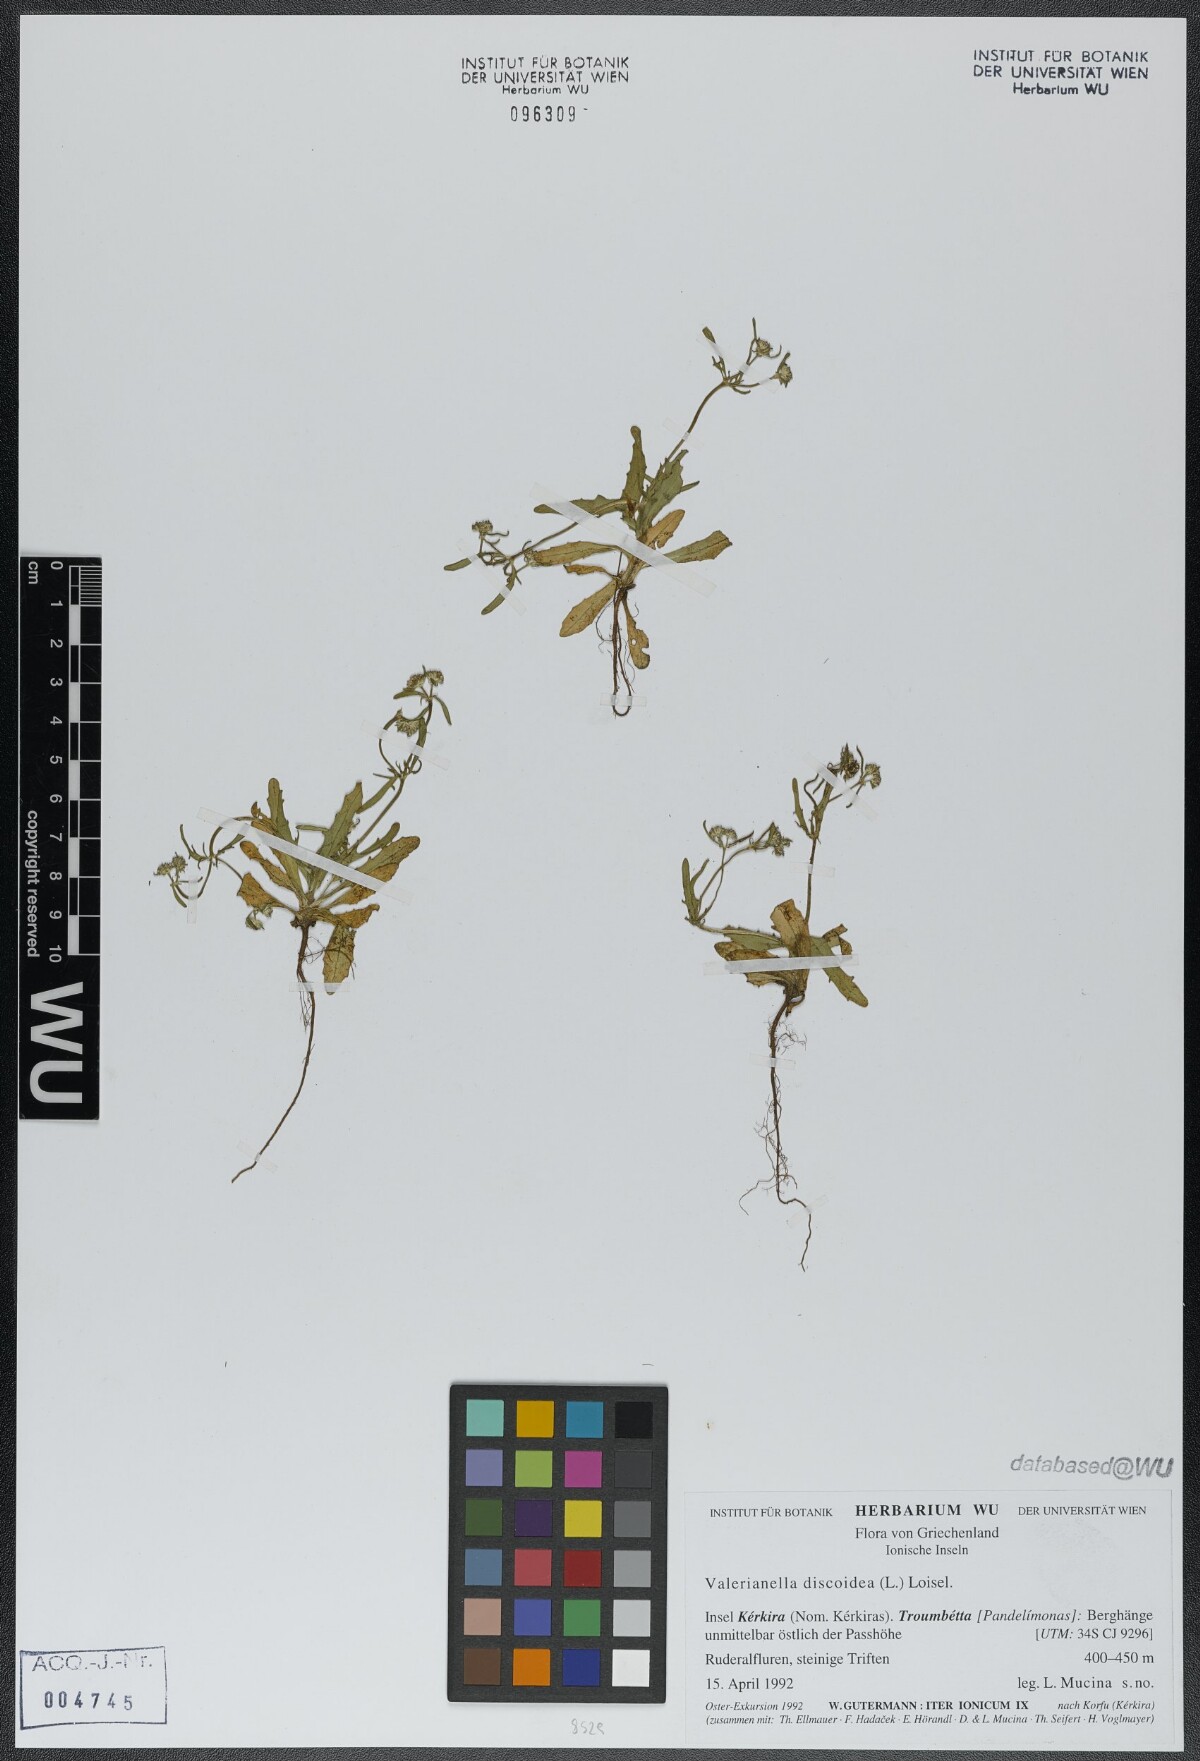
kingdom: Plantae
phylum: Tracheophyta
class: Magnoliopsida
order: Dipsacales
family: Caprifoliaceae
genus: Valerianella
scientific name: Valerianella discoidea
